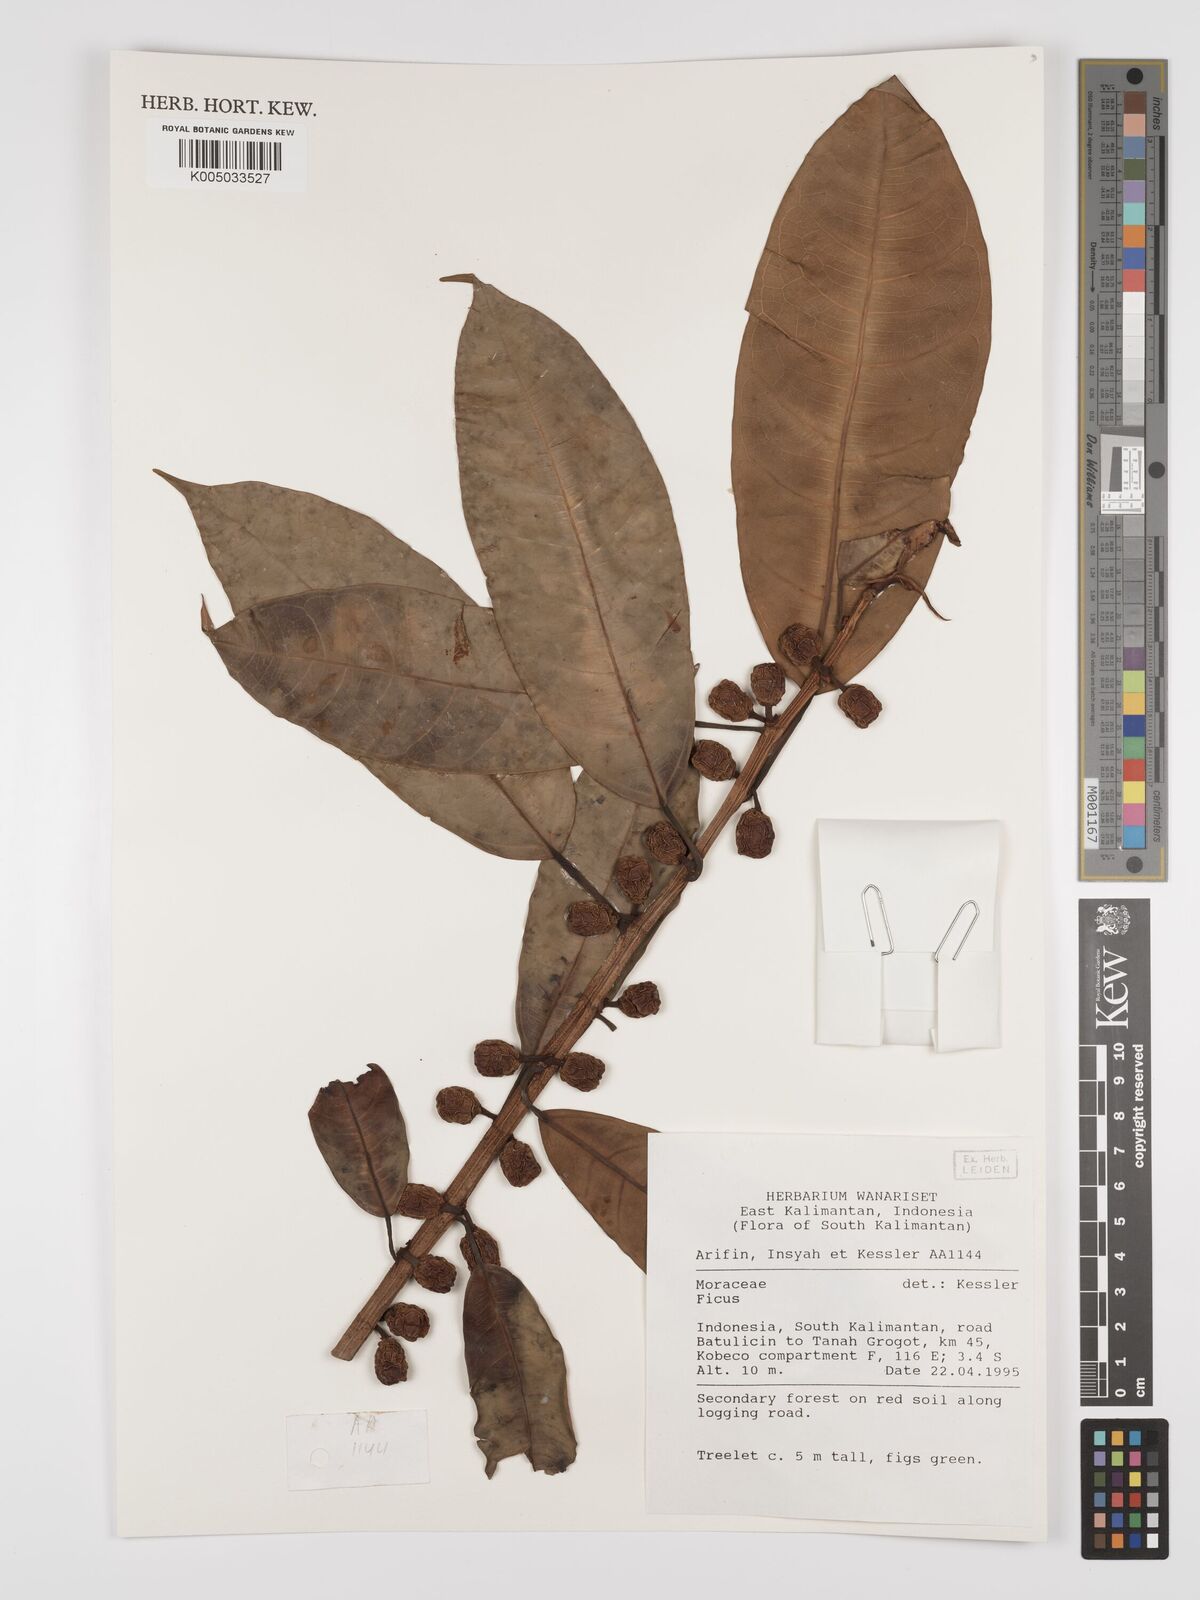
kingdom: Plantae
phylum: Tracheophyta
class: Magnoliopsida
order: Rosales
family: Moraceae
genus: Ficus
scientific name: Ficus
